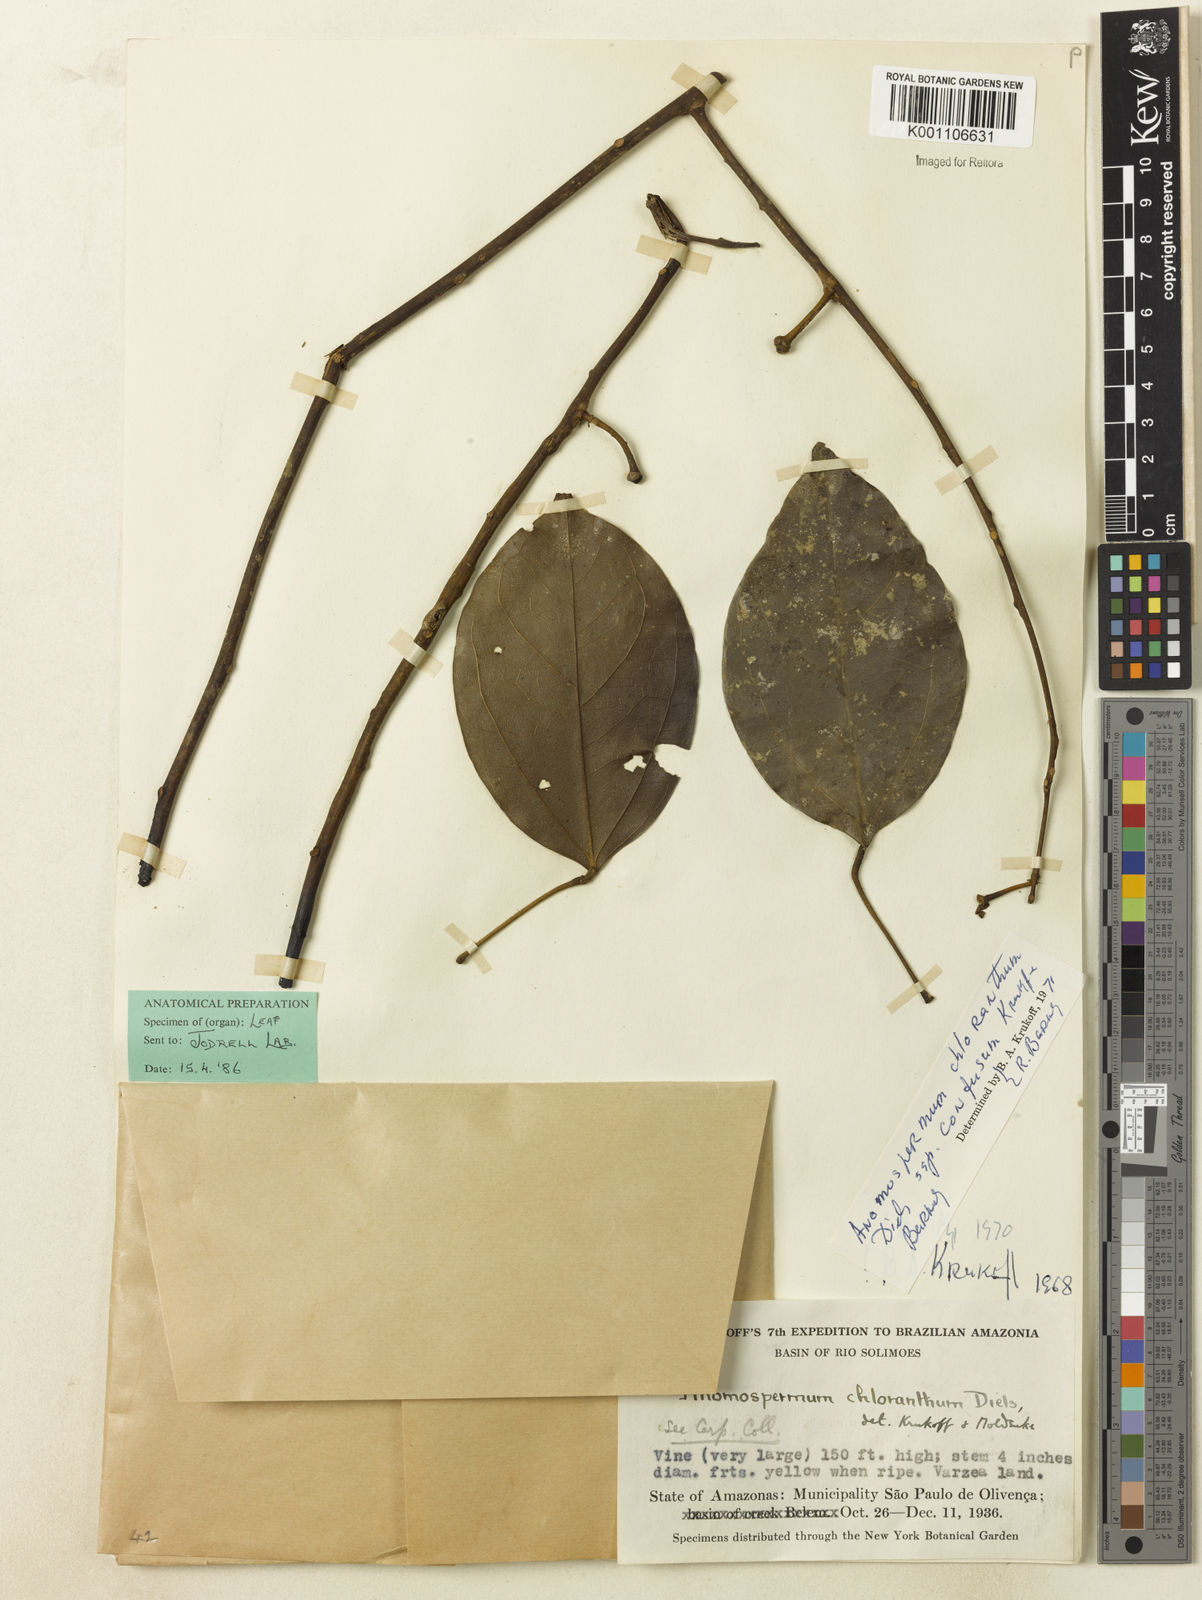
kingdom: Plantae
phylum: Tracheophyta
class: Magnoliopsida
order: Ranunculales
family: Menispermaceae
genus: Anomospermum
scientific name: Anomospermum chloranthum
